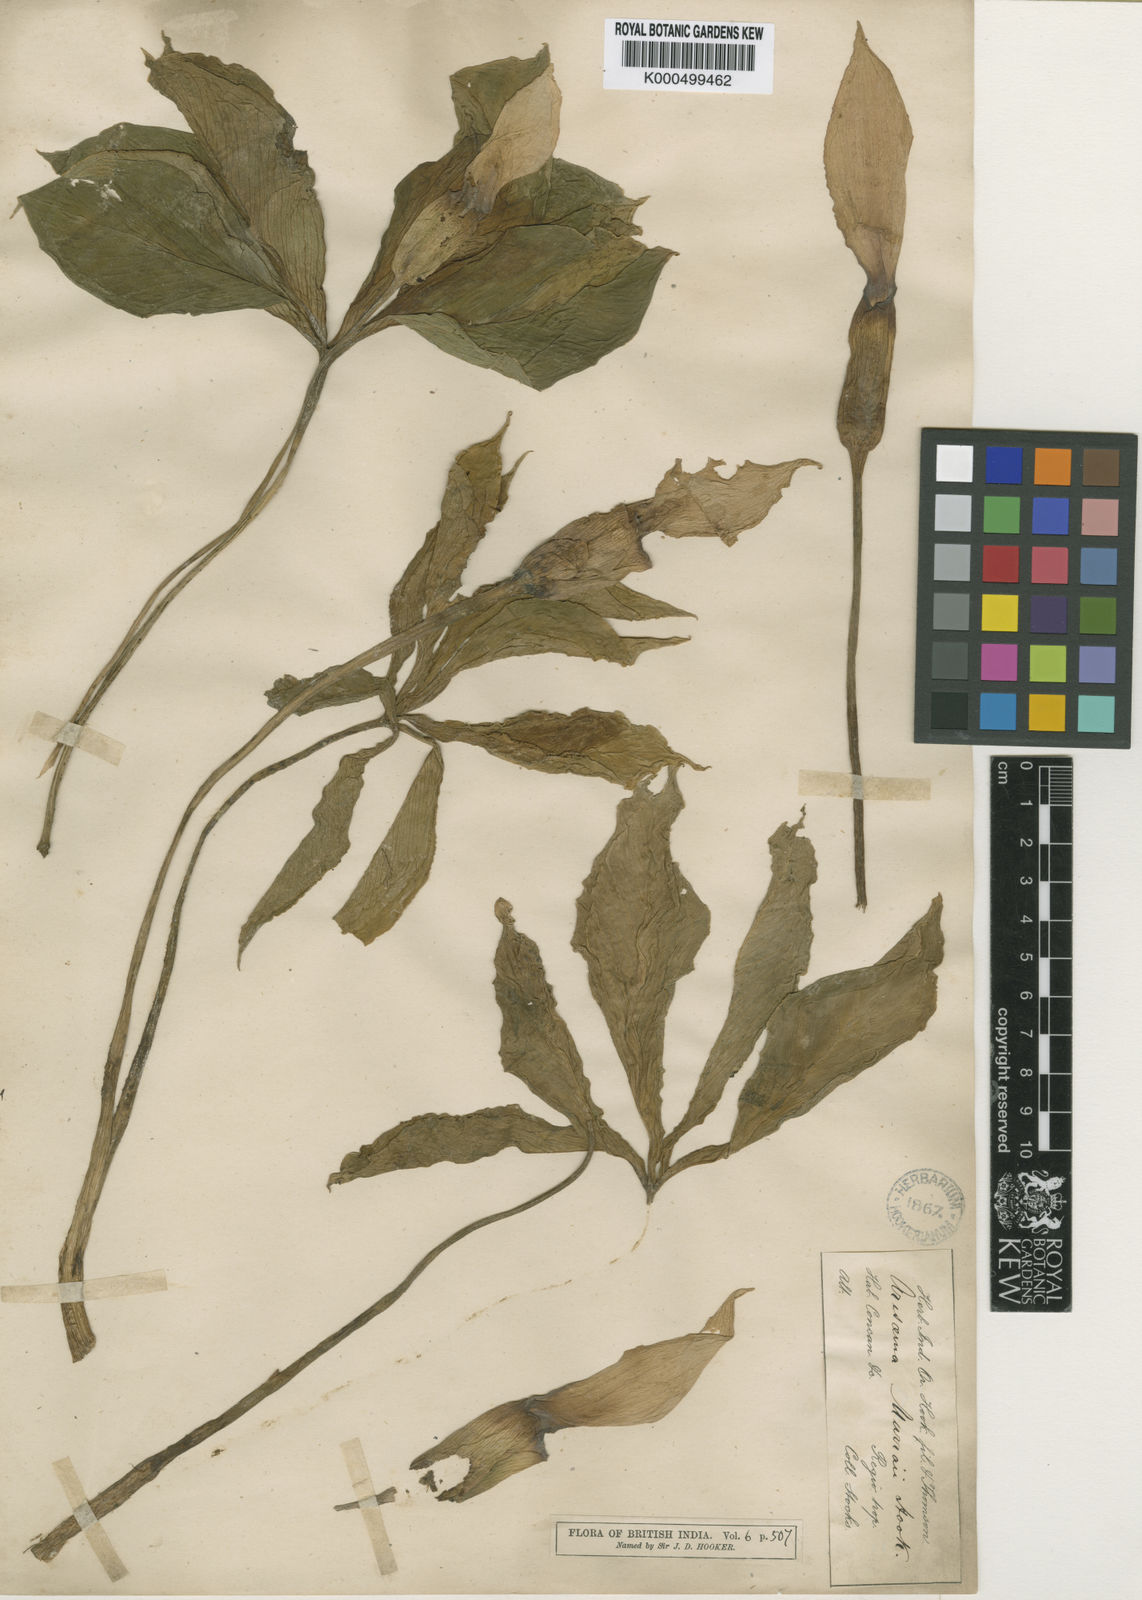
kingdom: Plantae
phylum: Tracheophyta
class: Liliopsida
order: Alismatales
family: Araceae
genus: Arisaema
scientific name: Arisaema murrayi
